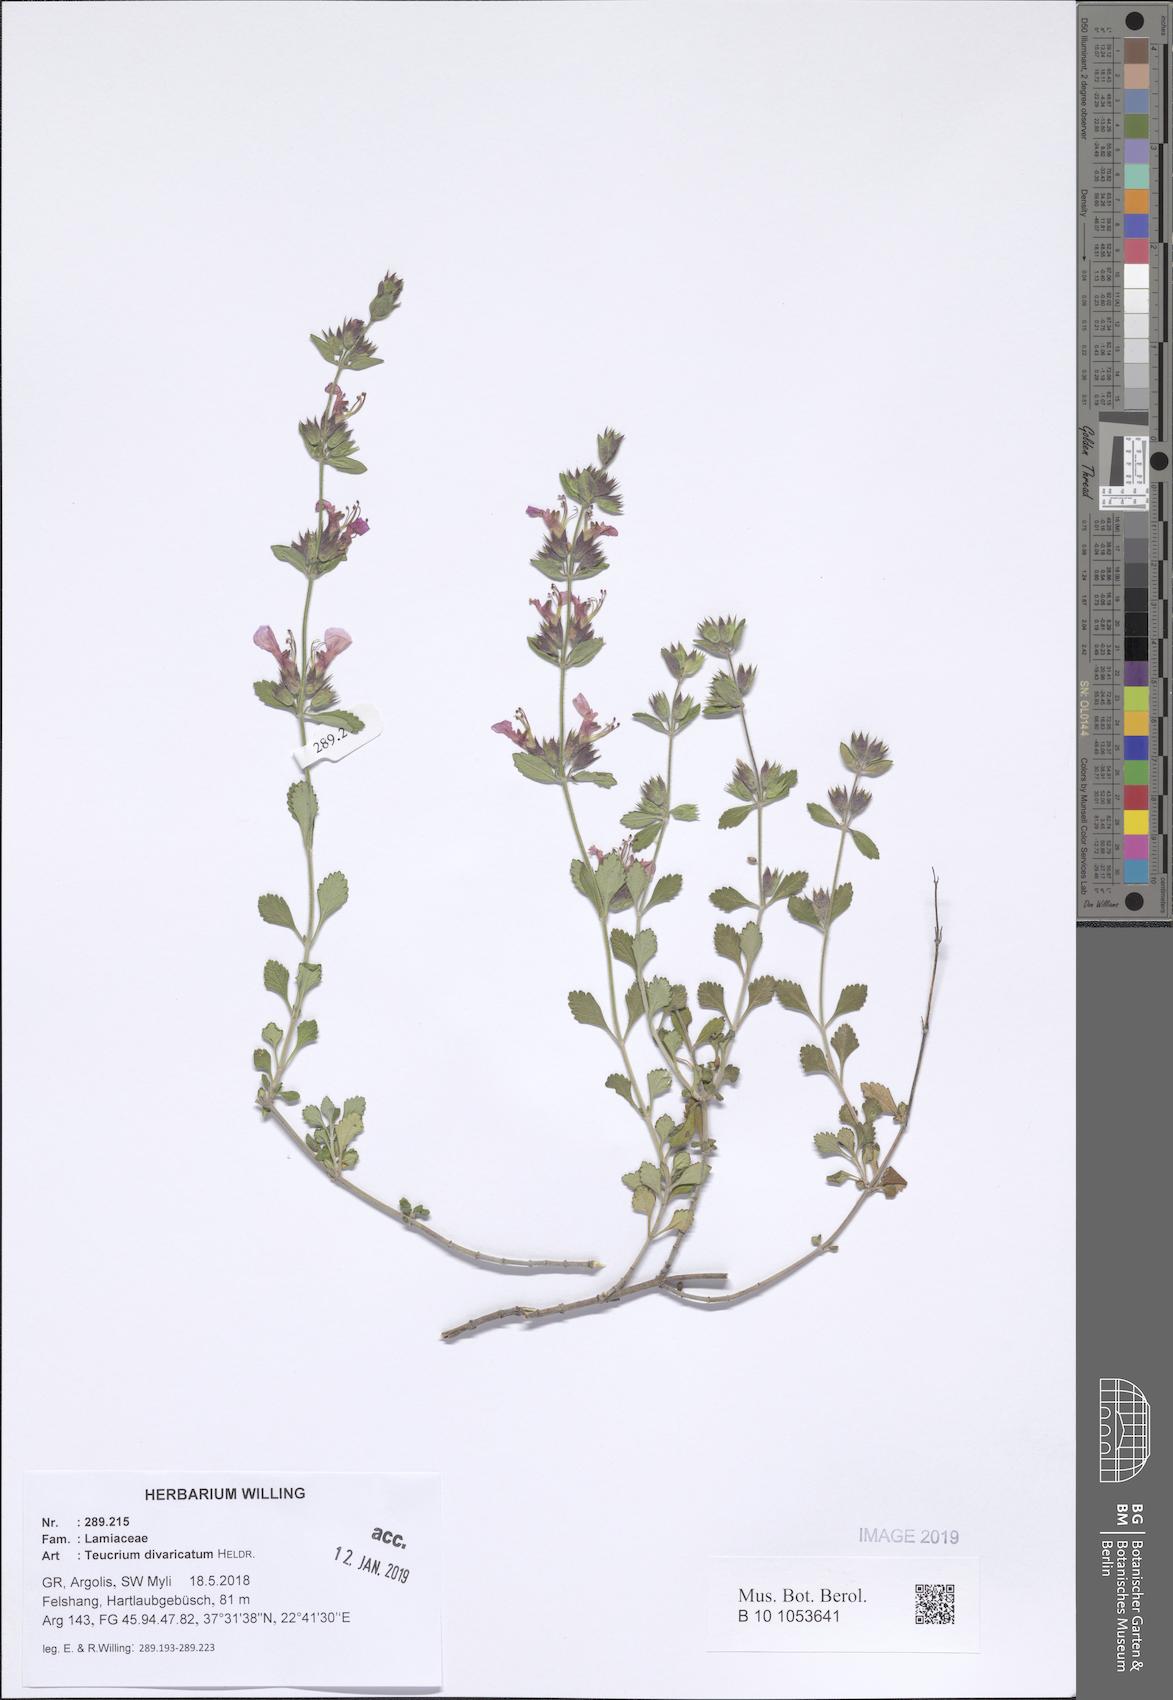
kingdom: Plantae
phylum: Tracheophyta
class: Magnoliopsida
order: Lamiales
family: Lamiaceae
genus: Teucrium
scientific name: Teucrium divaricatum
